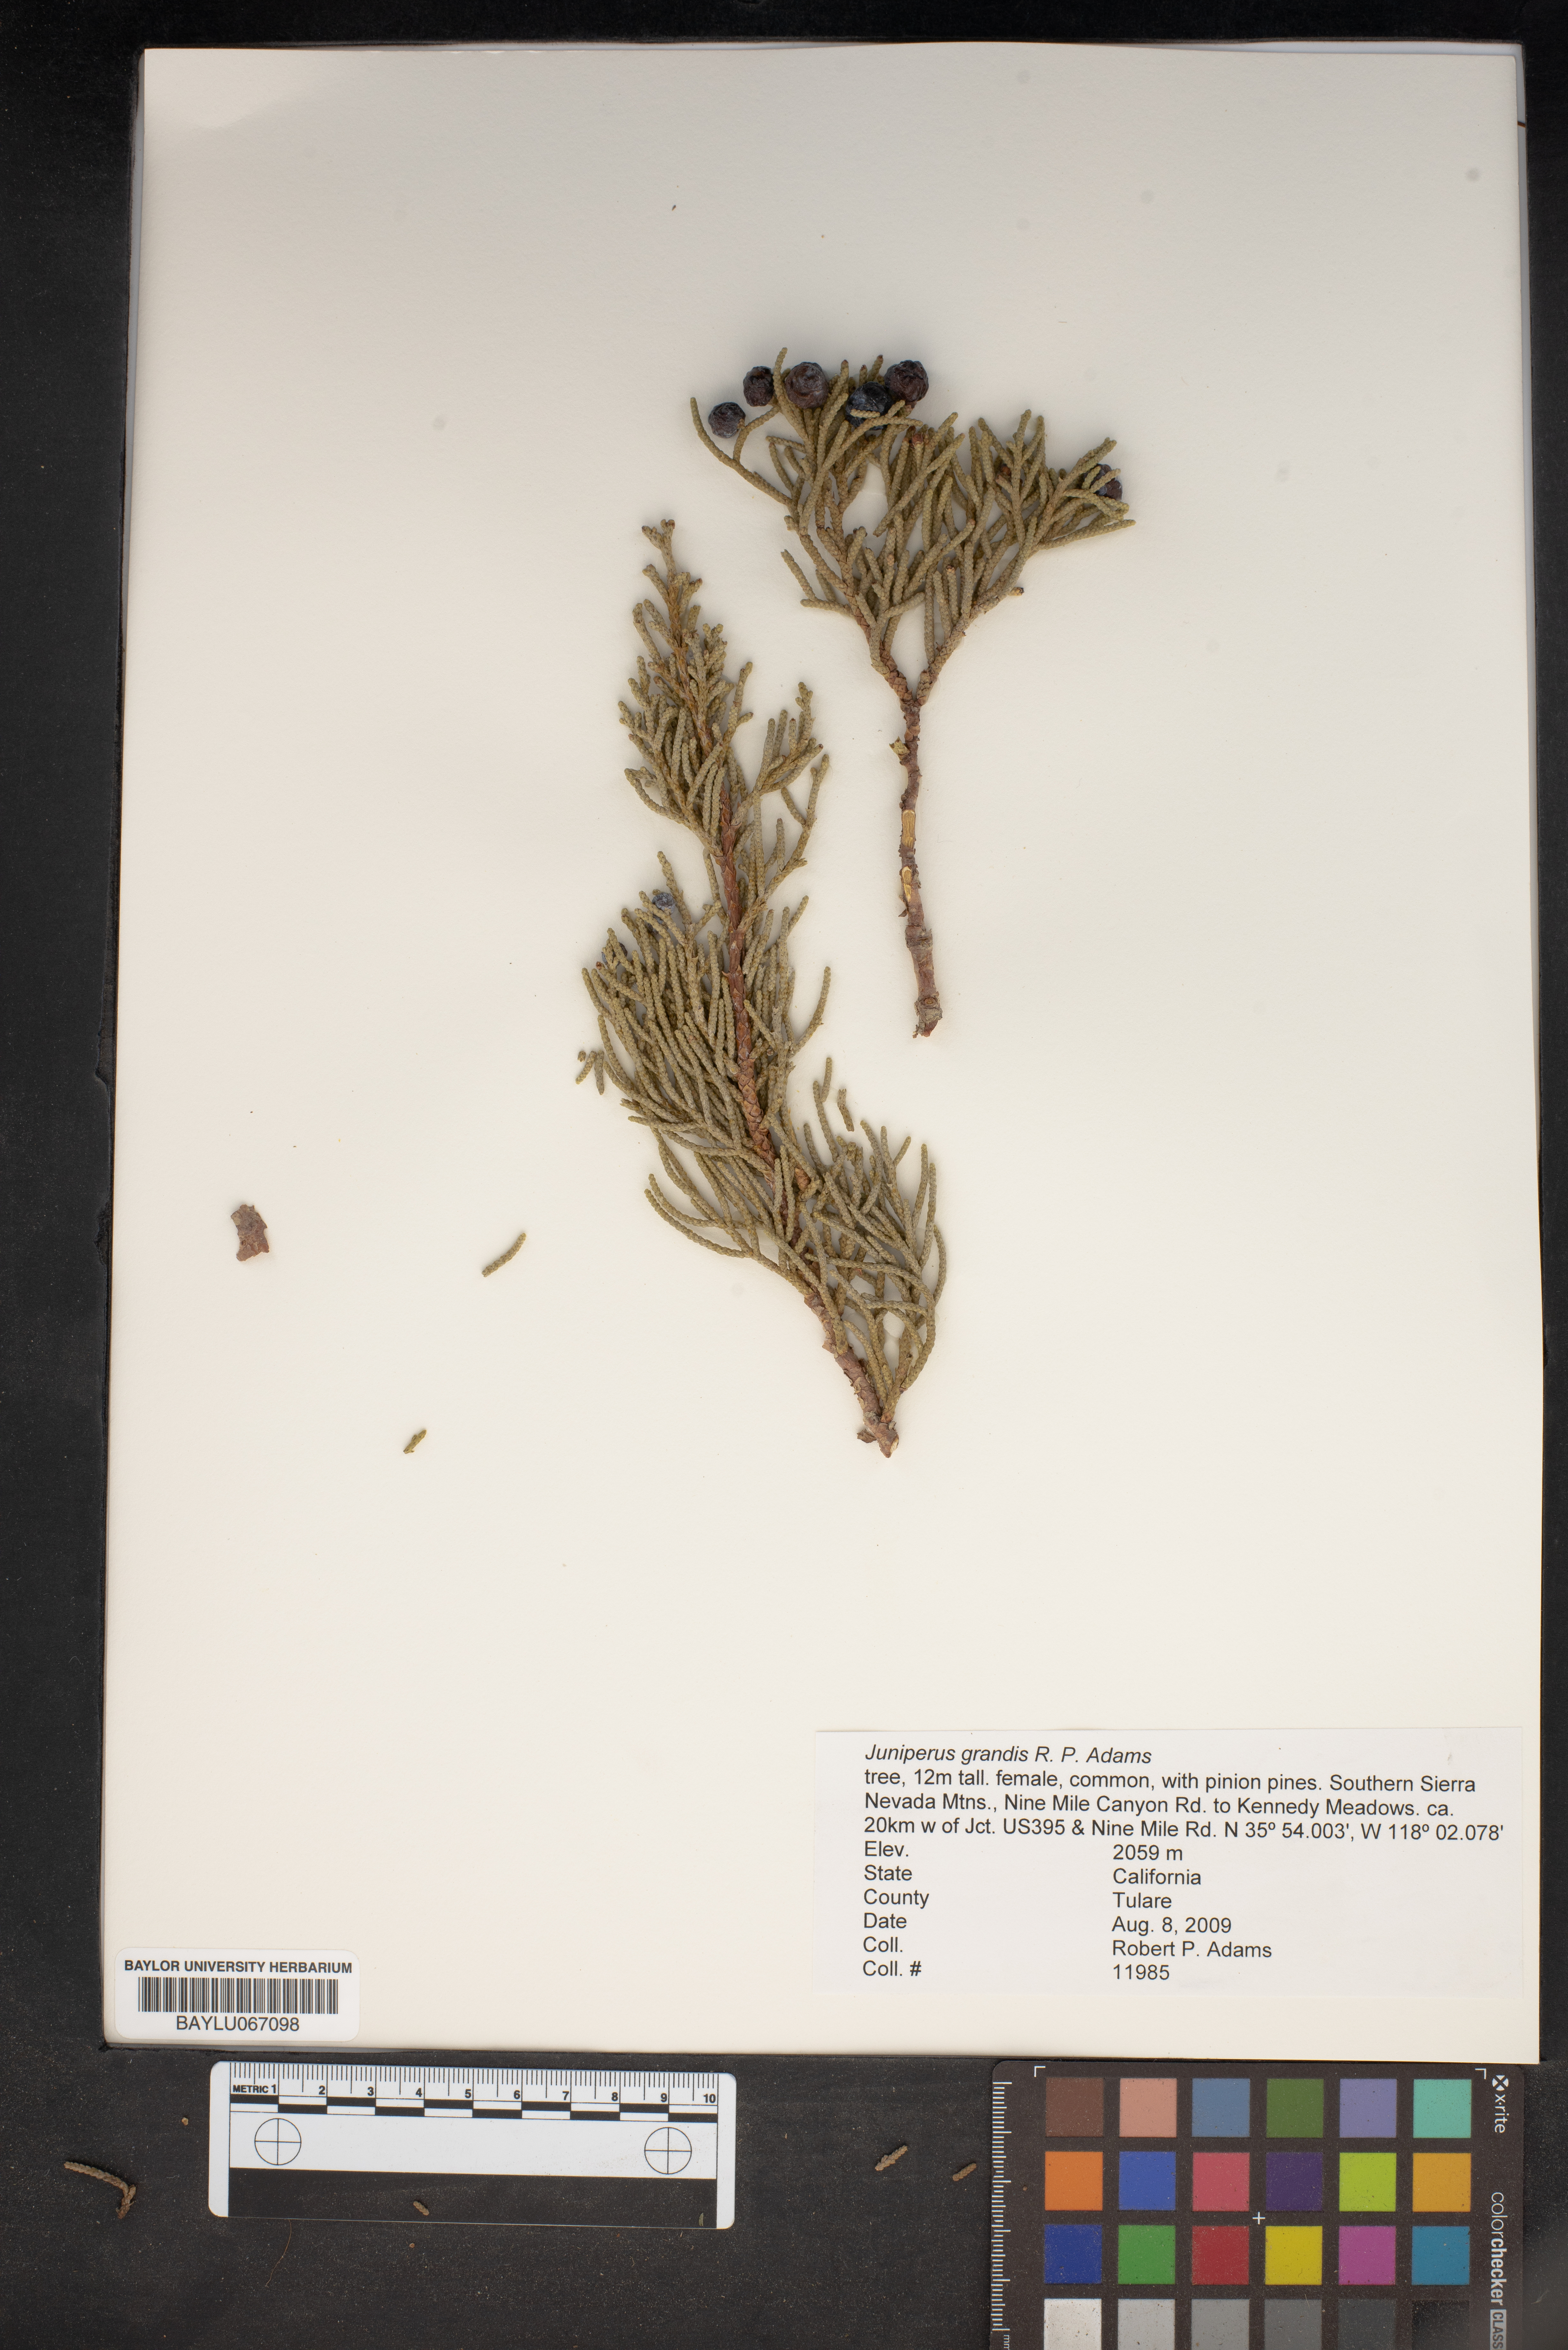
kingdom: Plantae
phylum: Tracheophyta
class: Pinopsida
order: Pinales
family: Cupressaceae
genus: Juniperus
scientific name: Juniperus occidentalis
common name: Western juniper
